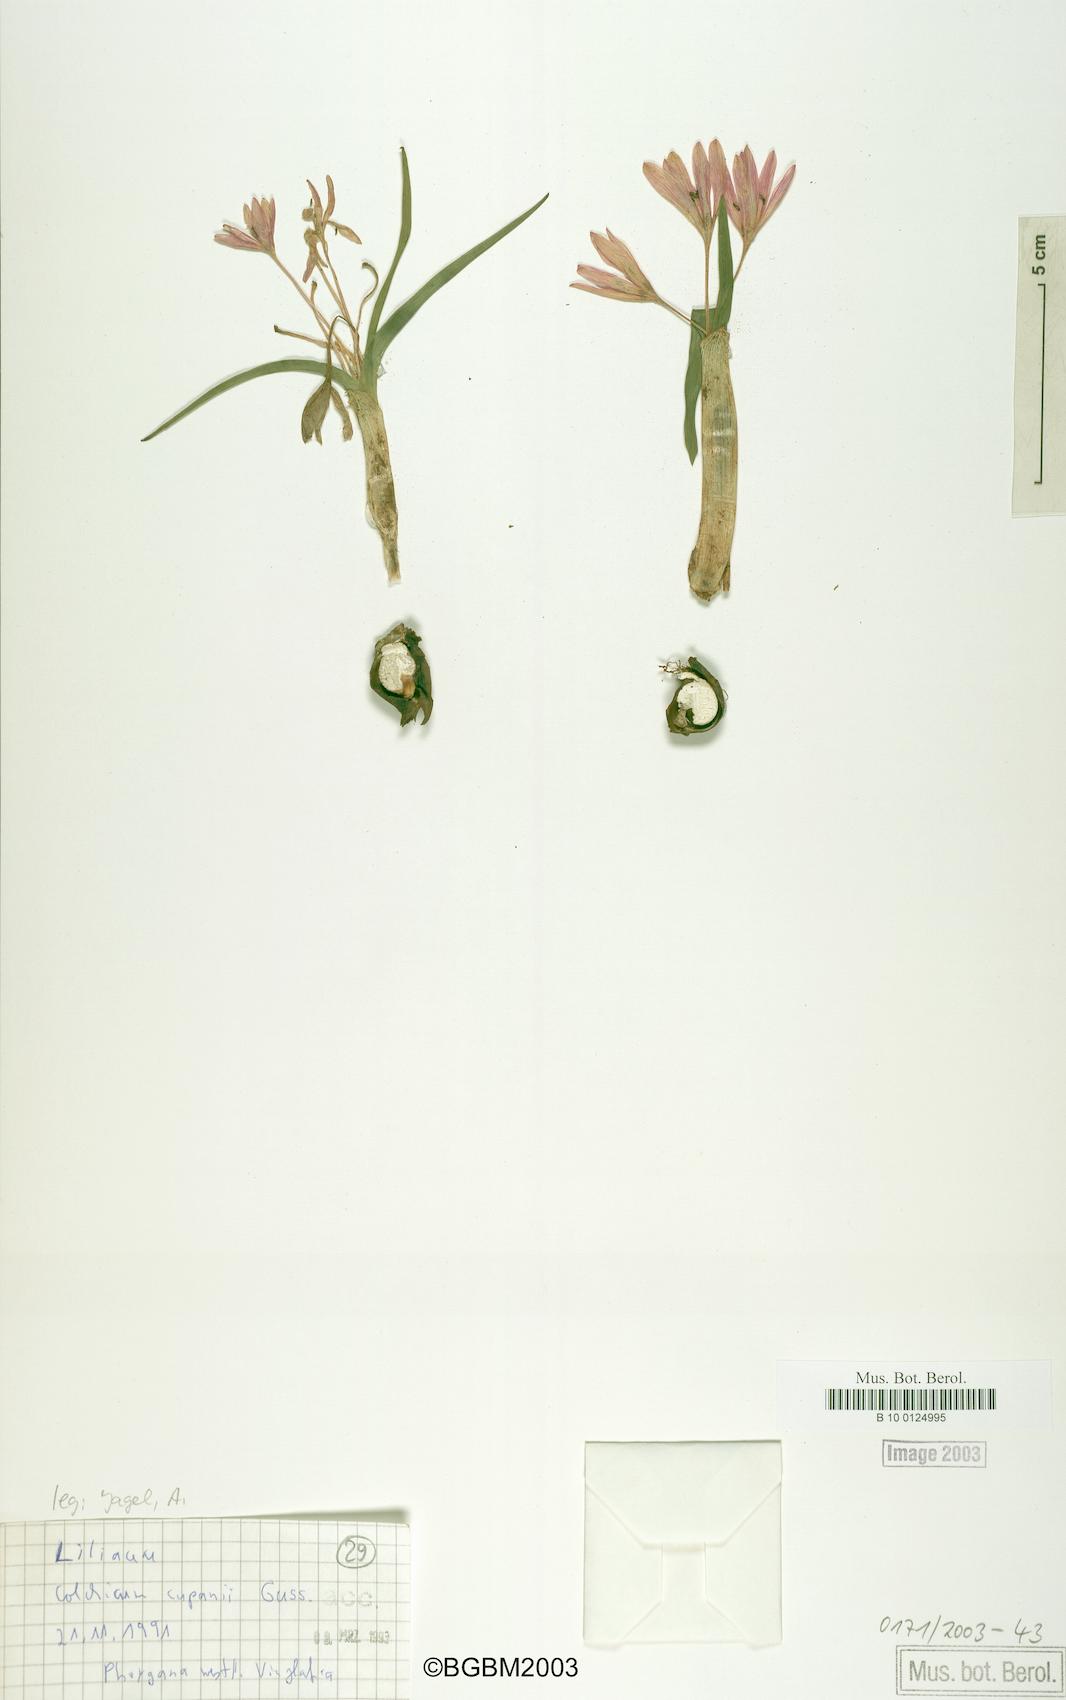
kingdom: Plantae
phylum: Tracheophyta
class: Liliopsida
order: Liliales
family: Colchicaceae
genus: Colchicum
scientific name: Colchicum cupanii
